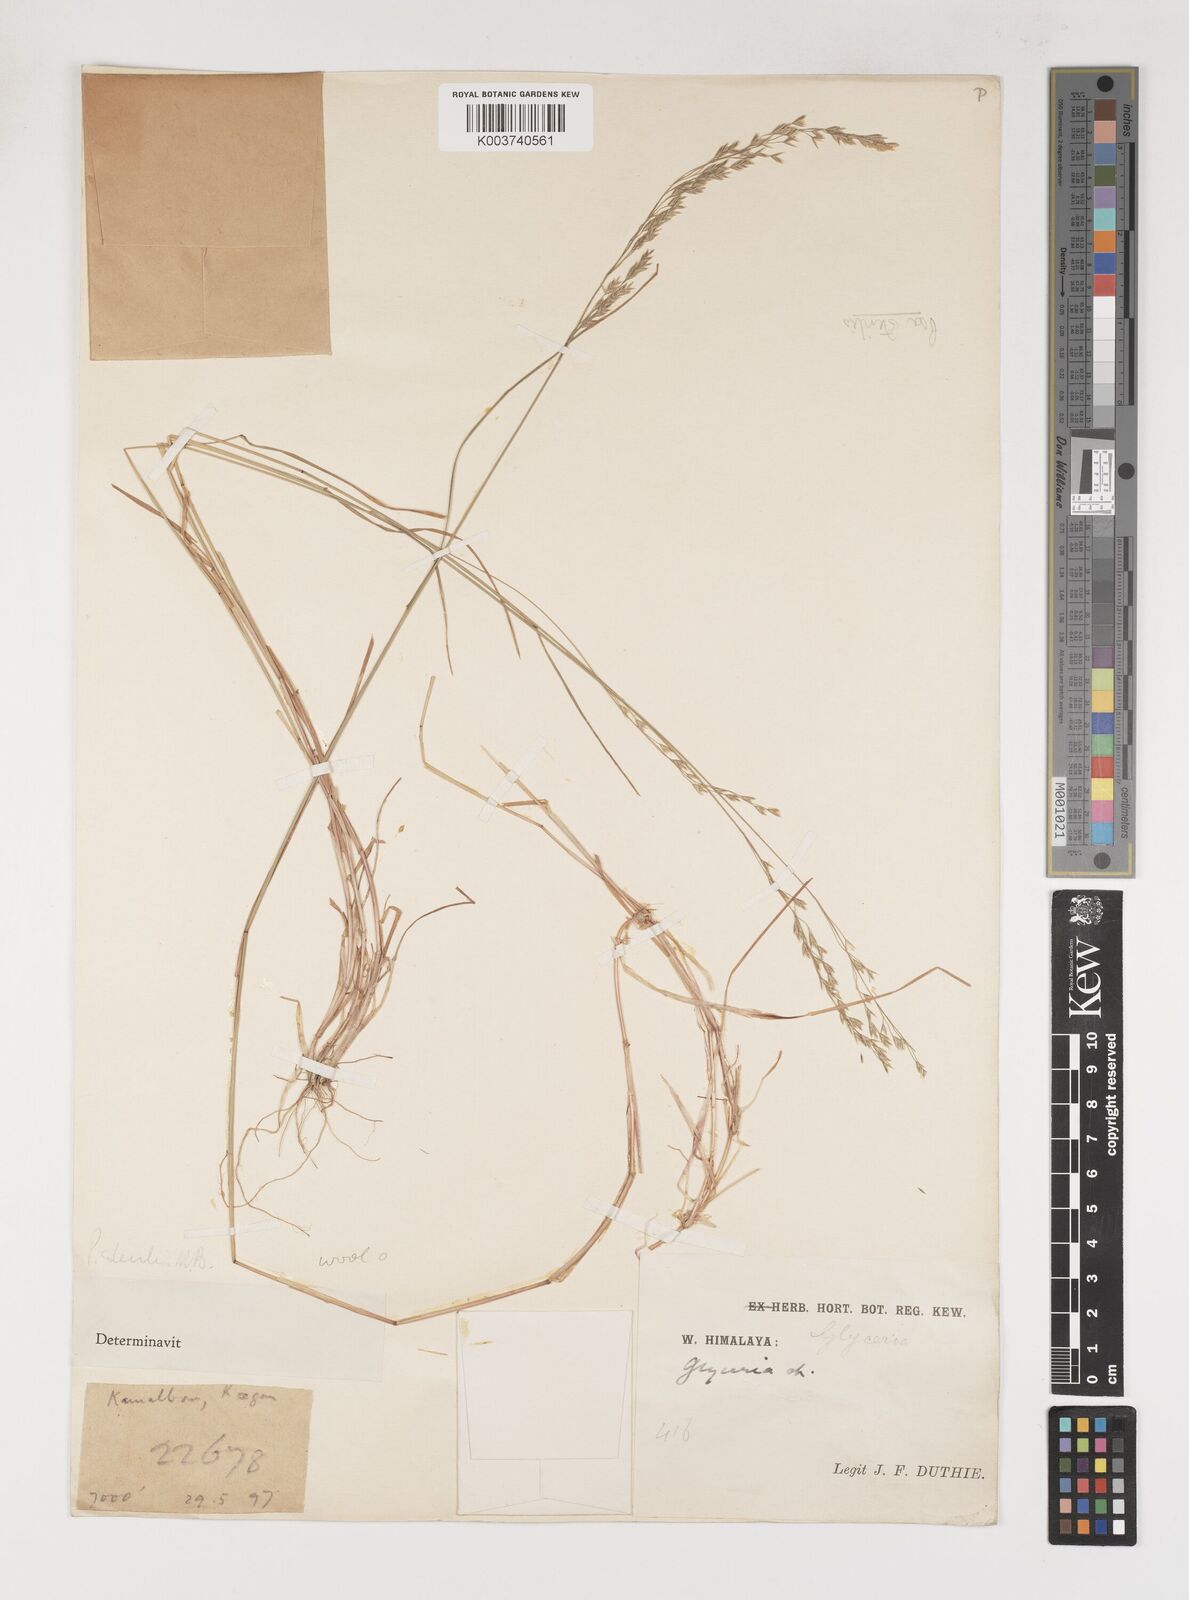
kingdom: Plantae
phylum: Tracheophyta
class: Liliopsida
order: Poales
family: Poaceae
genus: Poa
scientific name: Poa sterilis
